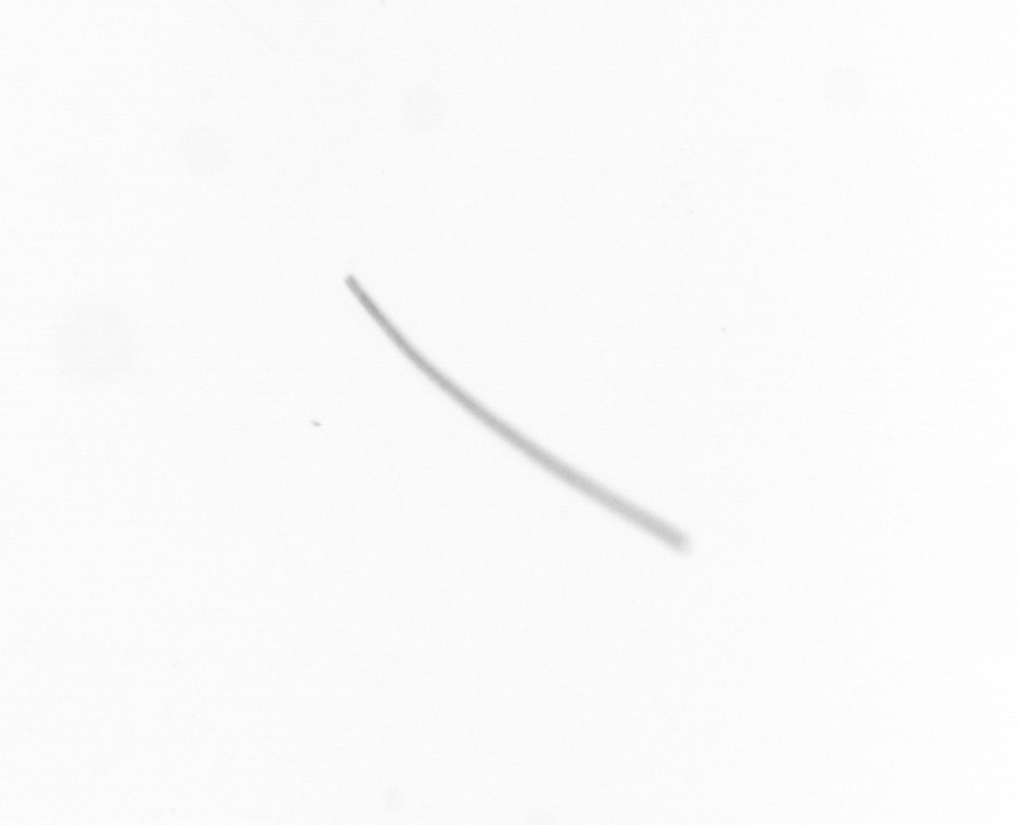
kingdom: Chromista
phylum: Ochrophyta
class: Bacillariophyceae
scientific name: Bacillariophyceae
